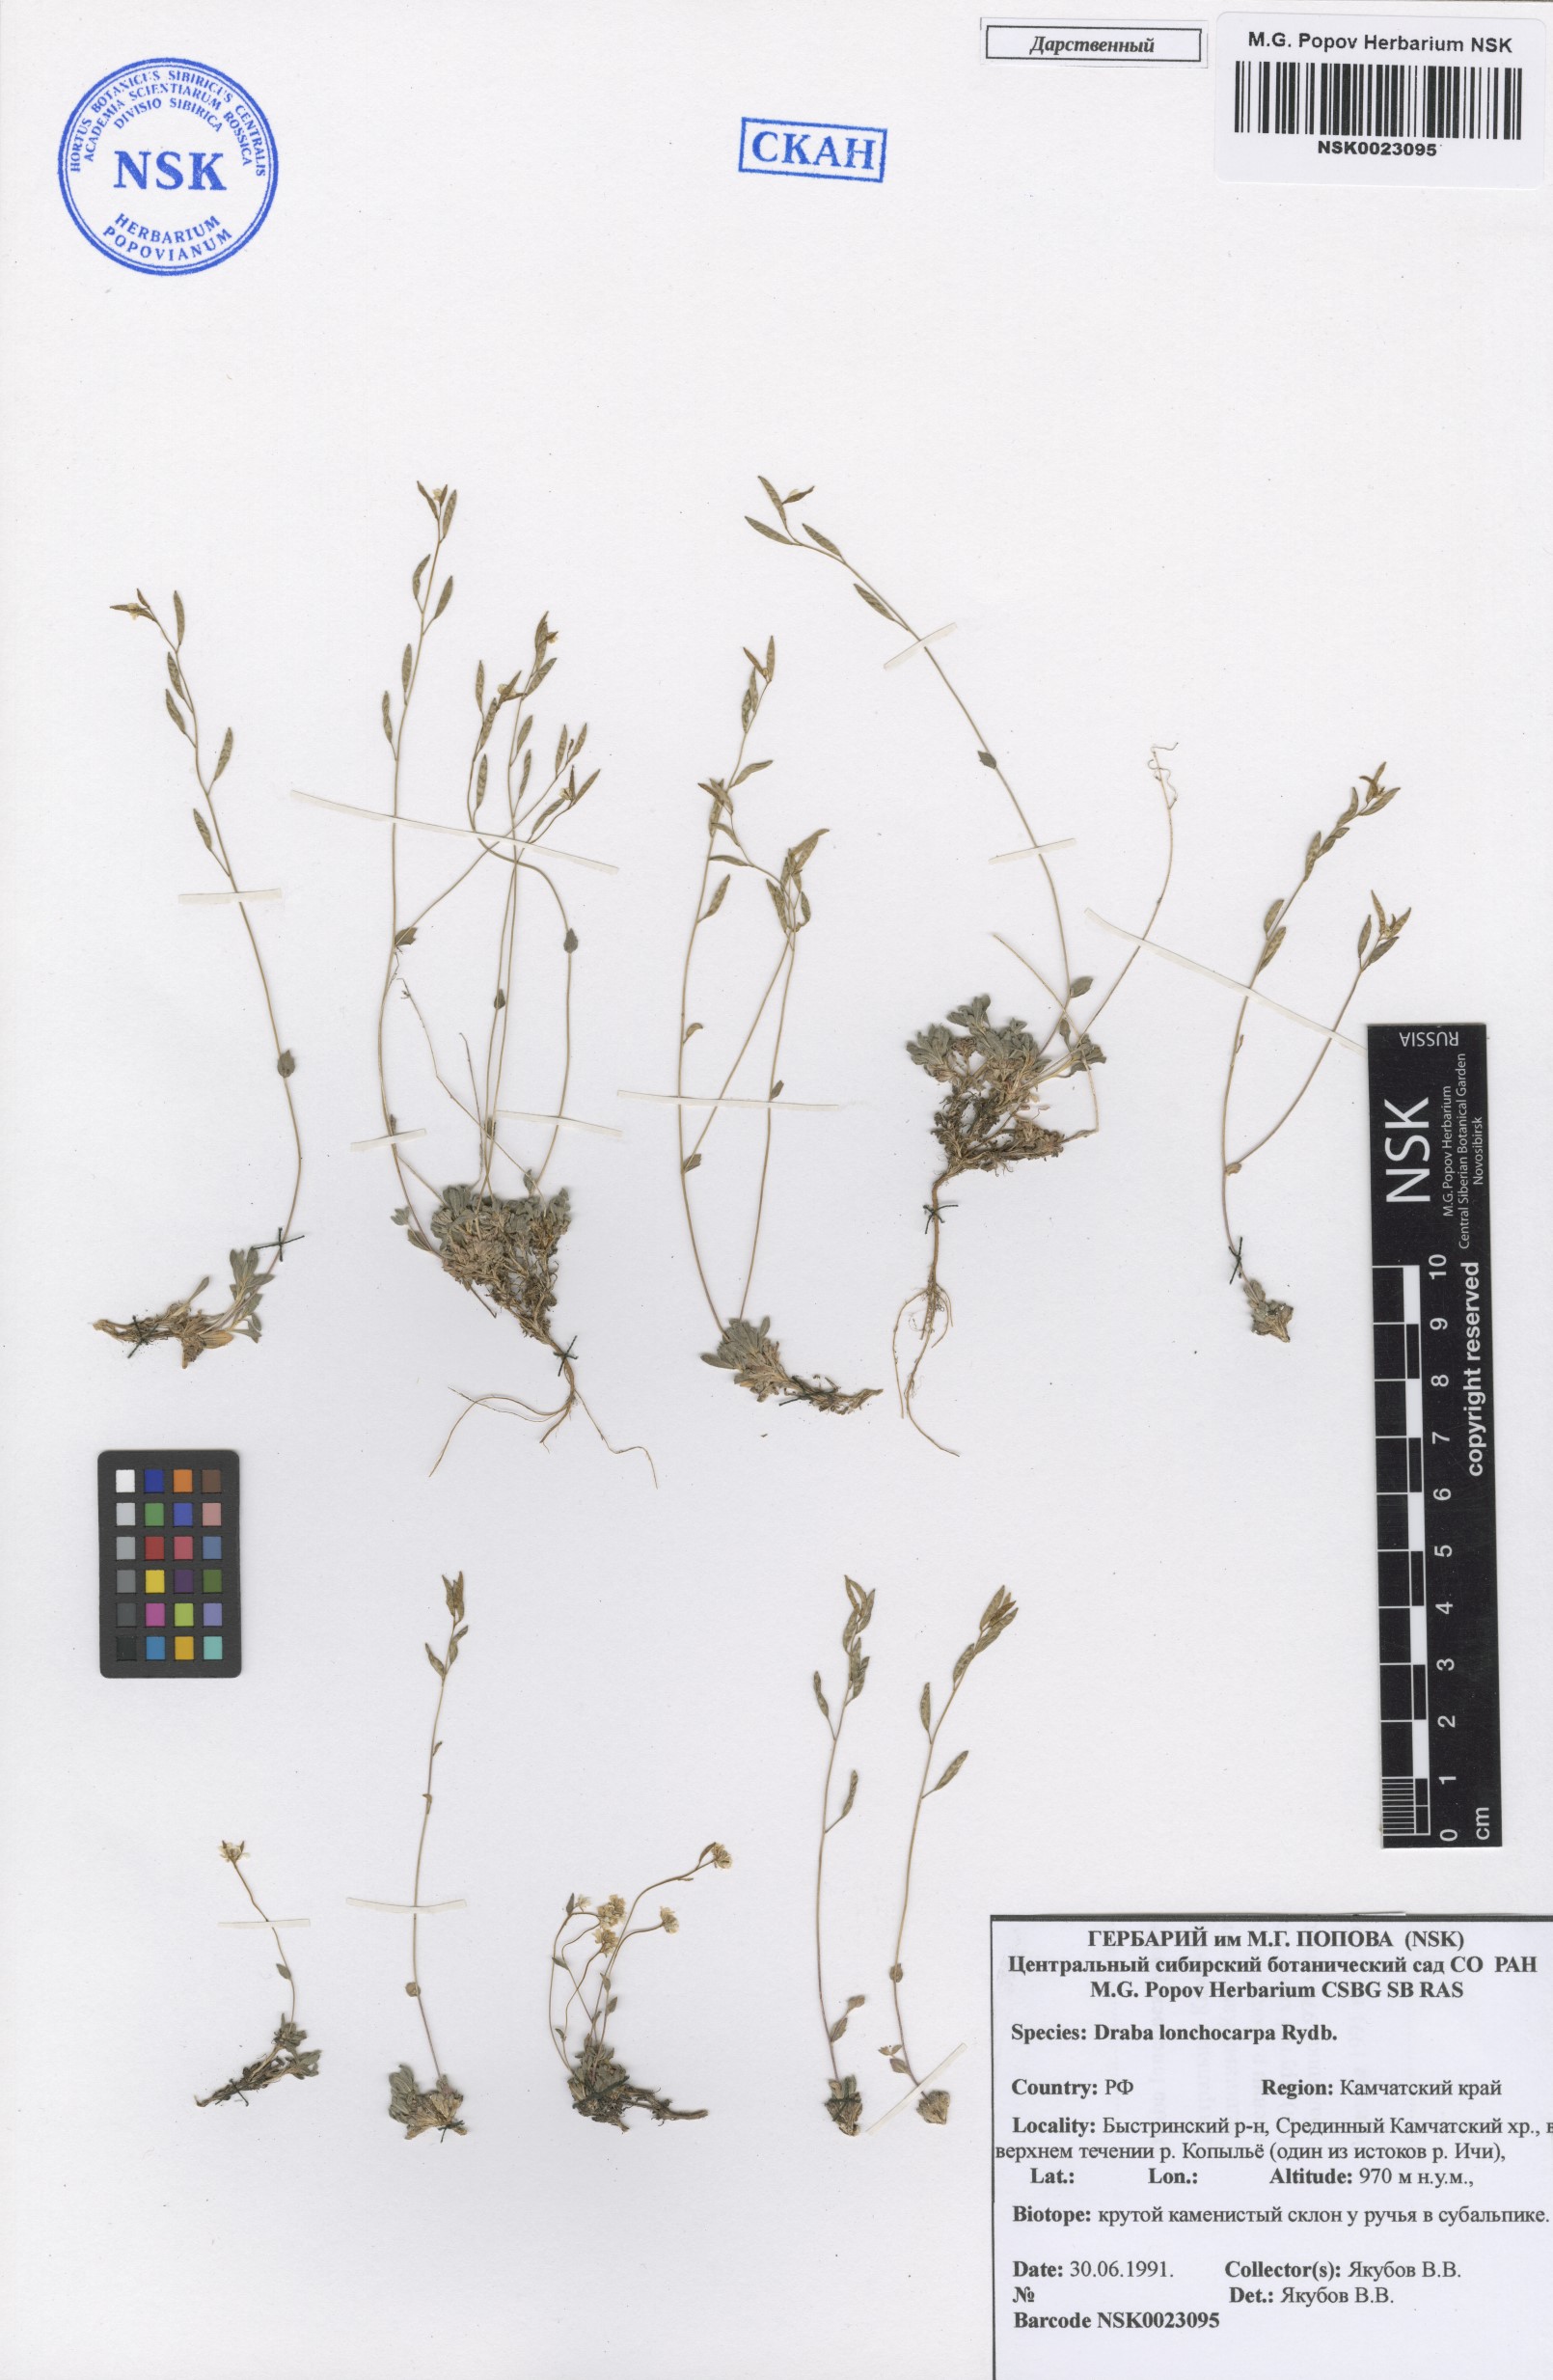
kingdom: Plantae
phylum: Tracheophyta
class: Magnoliopsida
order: Brassicales
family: Brassicaceae
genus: Draba
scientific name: Draba lonchocarpa
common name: Lance-fruit draba
